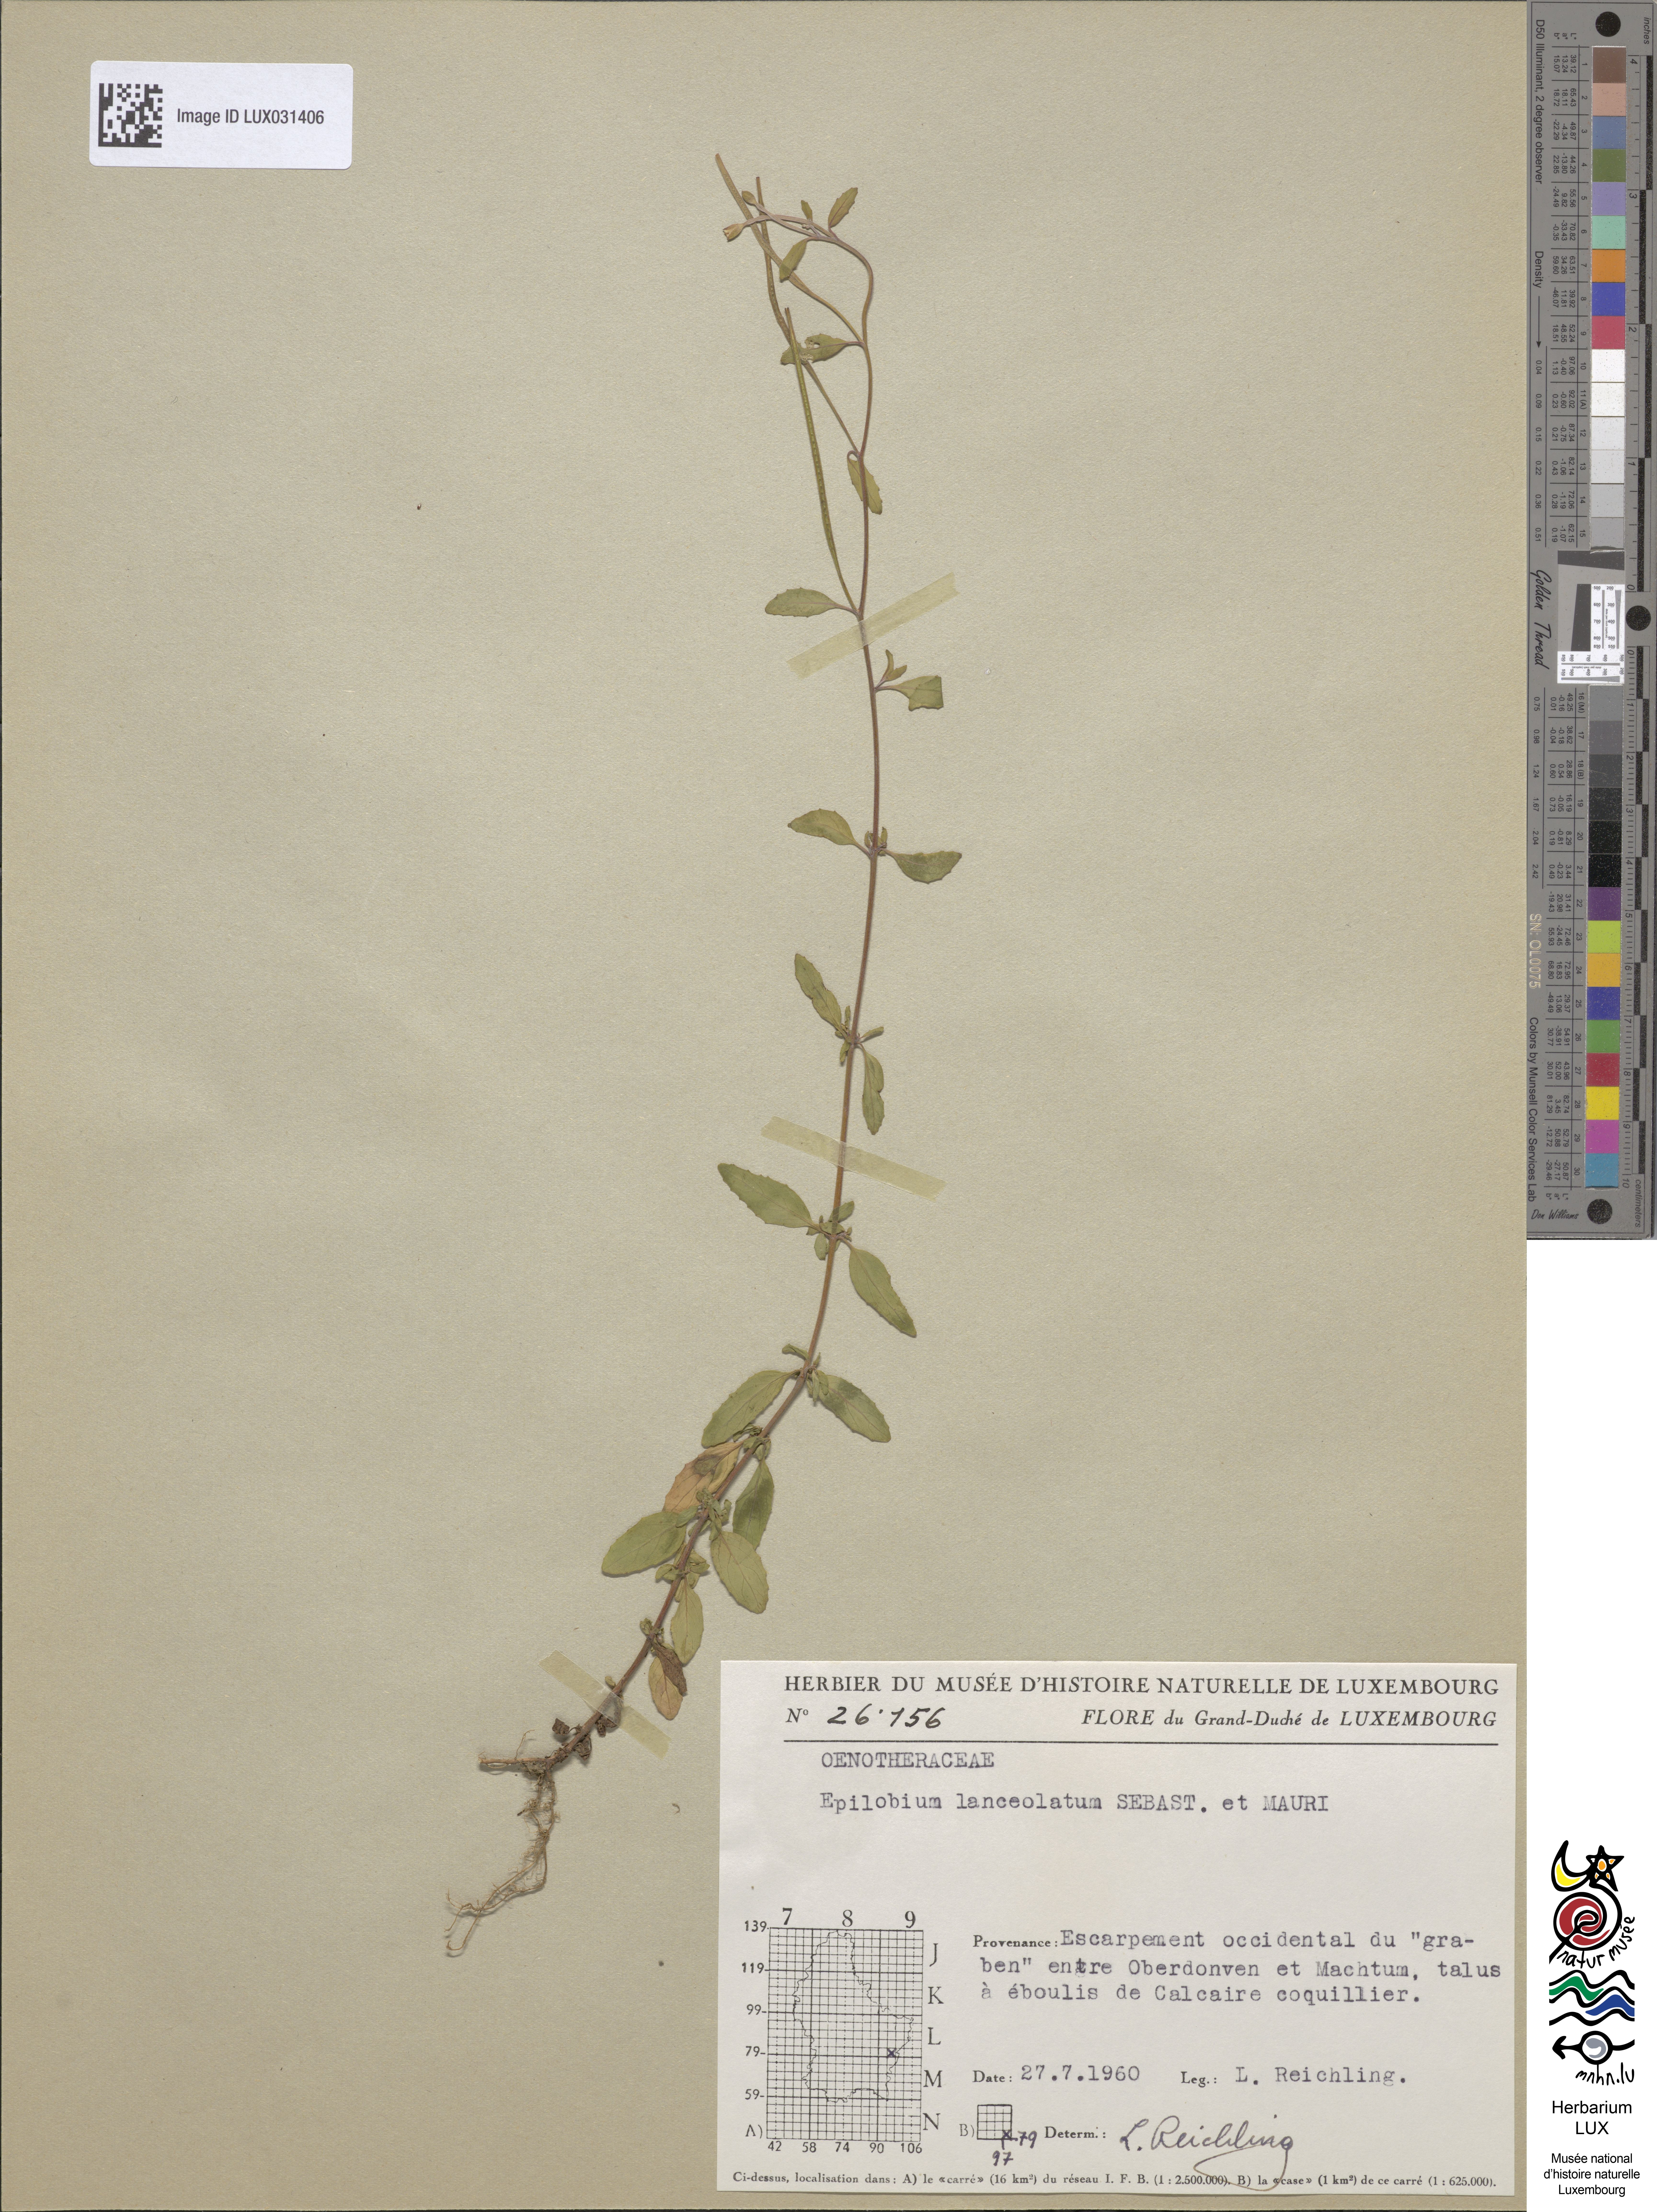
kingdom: Plantae
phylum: Tracheophyta
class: Magnoliopsida
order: Myrtales
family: Onagraceae
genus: Epilobium
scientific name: Epilobium lanceolatum
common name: Spear-leaved willowherb
